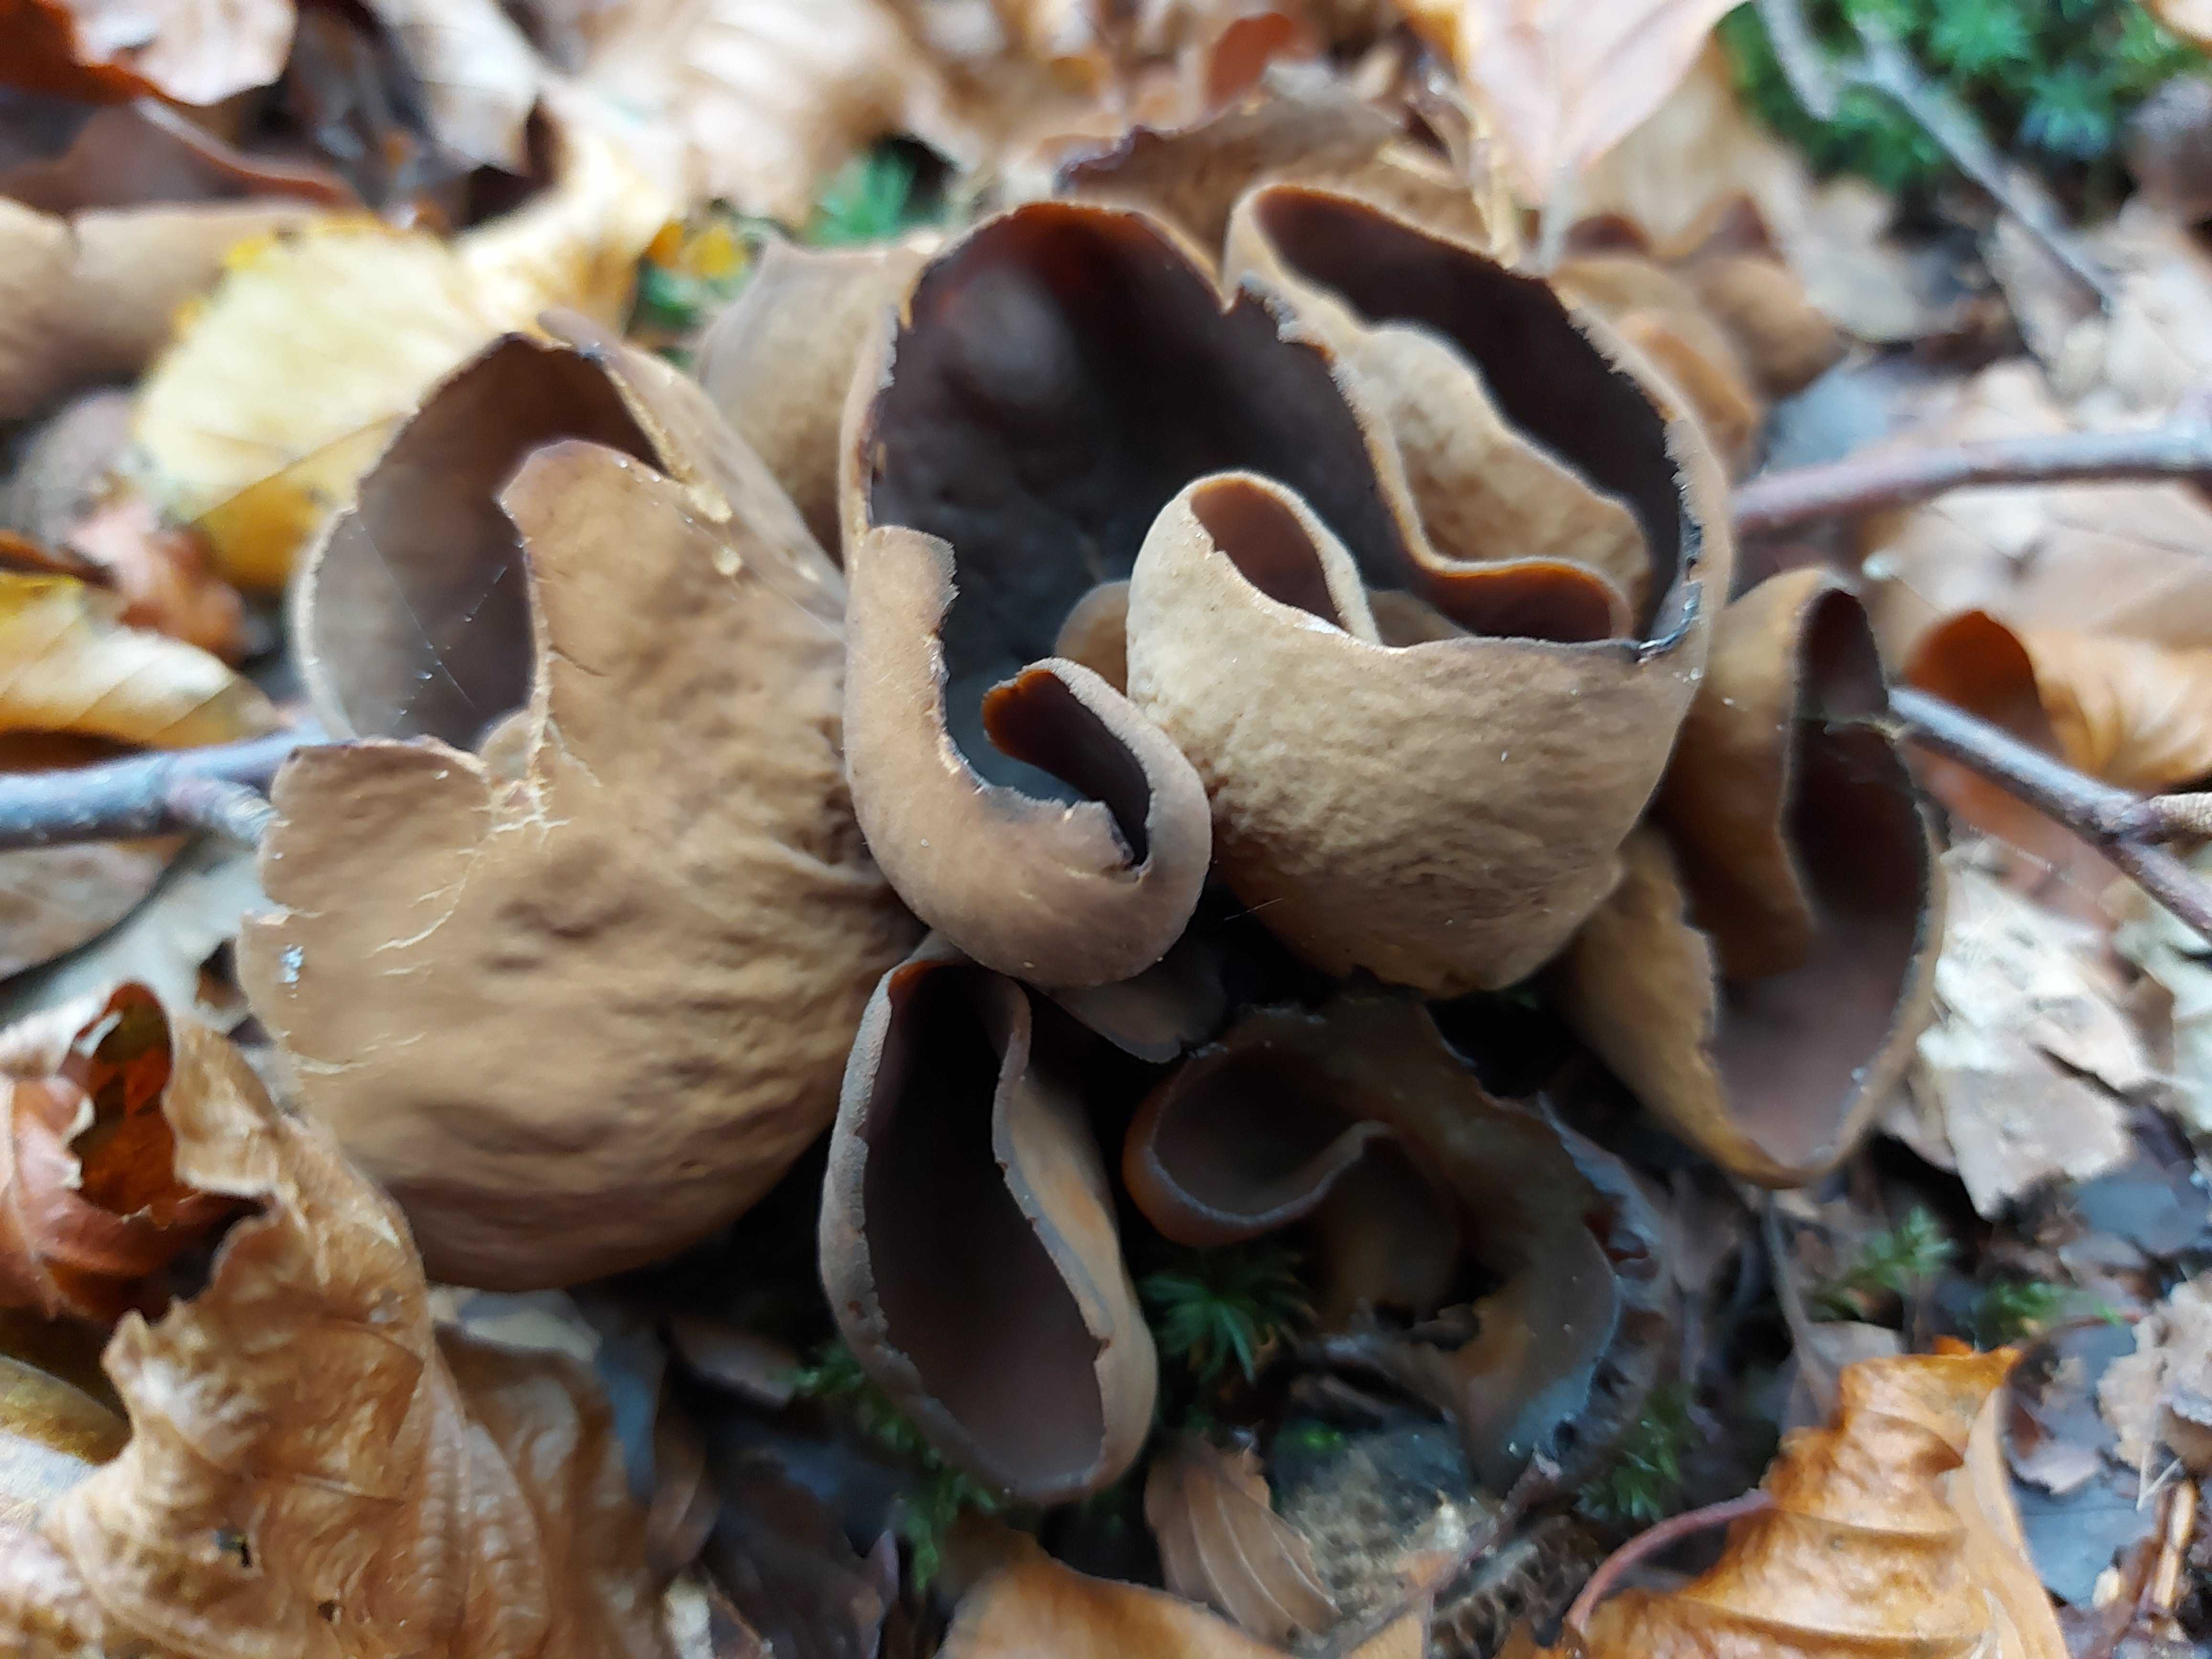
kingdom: Fungi
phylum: Ascomycota
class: Pezizomycetes
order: Pezizales
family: Otideaceae
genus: Otidea
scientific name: Otidea
